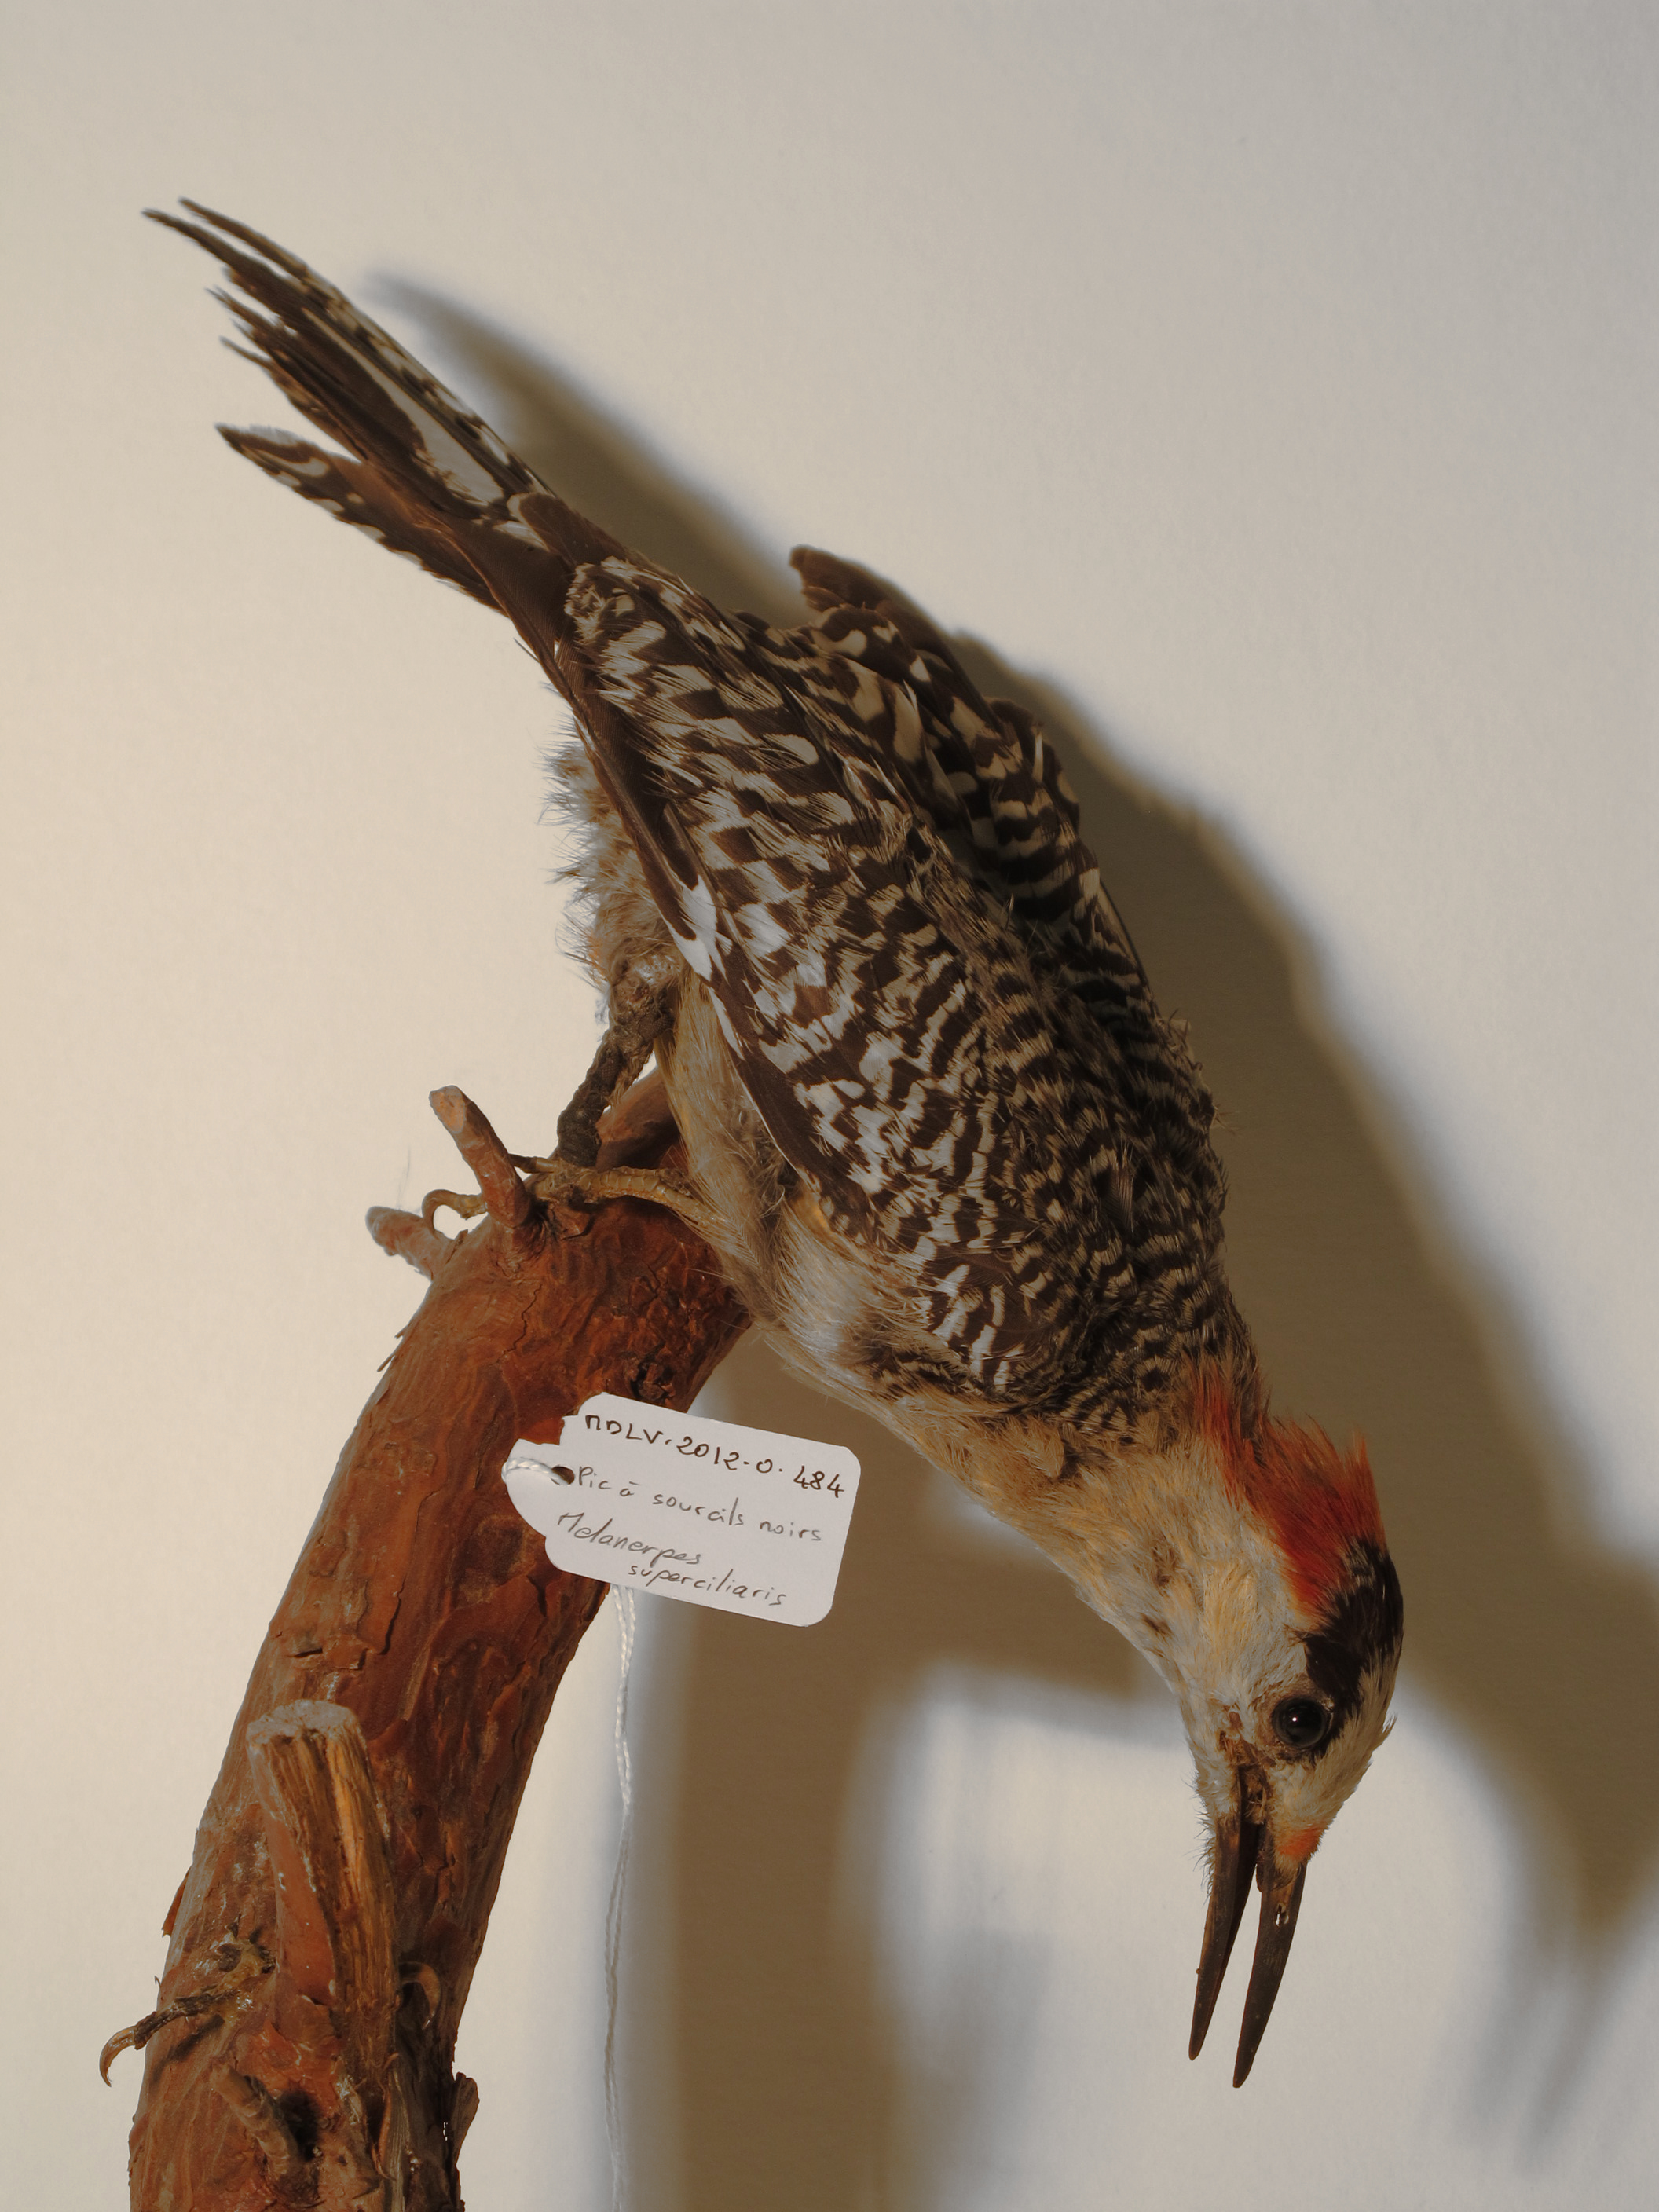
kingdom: Animalia
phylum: Chordata
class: Aves
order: Piciformes
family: Picidae
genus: Melanerpes
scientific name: Melanerpes superciliaris
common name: West Indian Woodpecker
